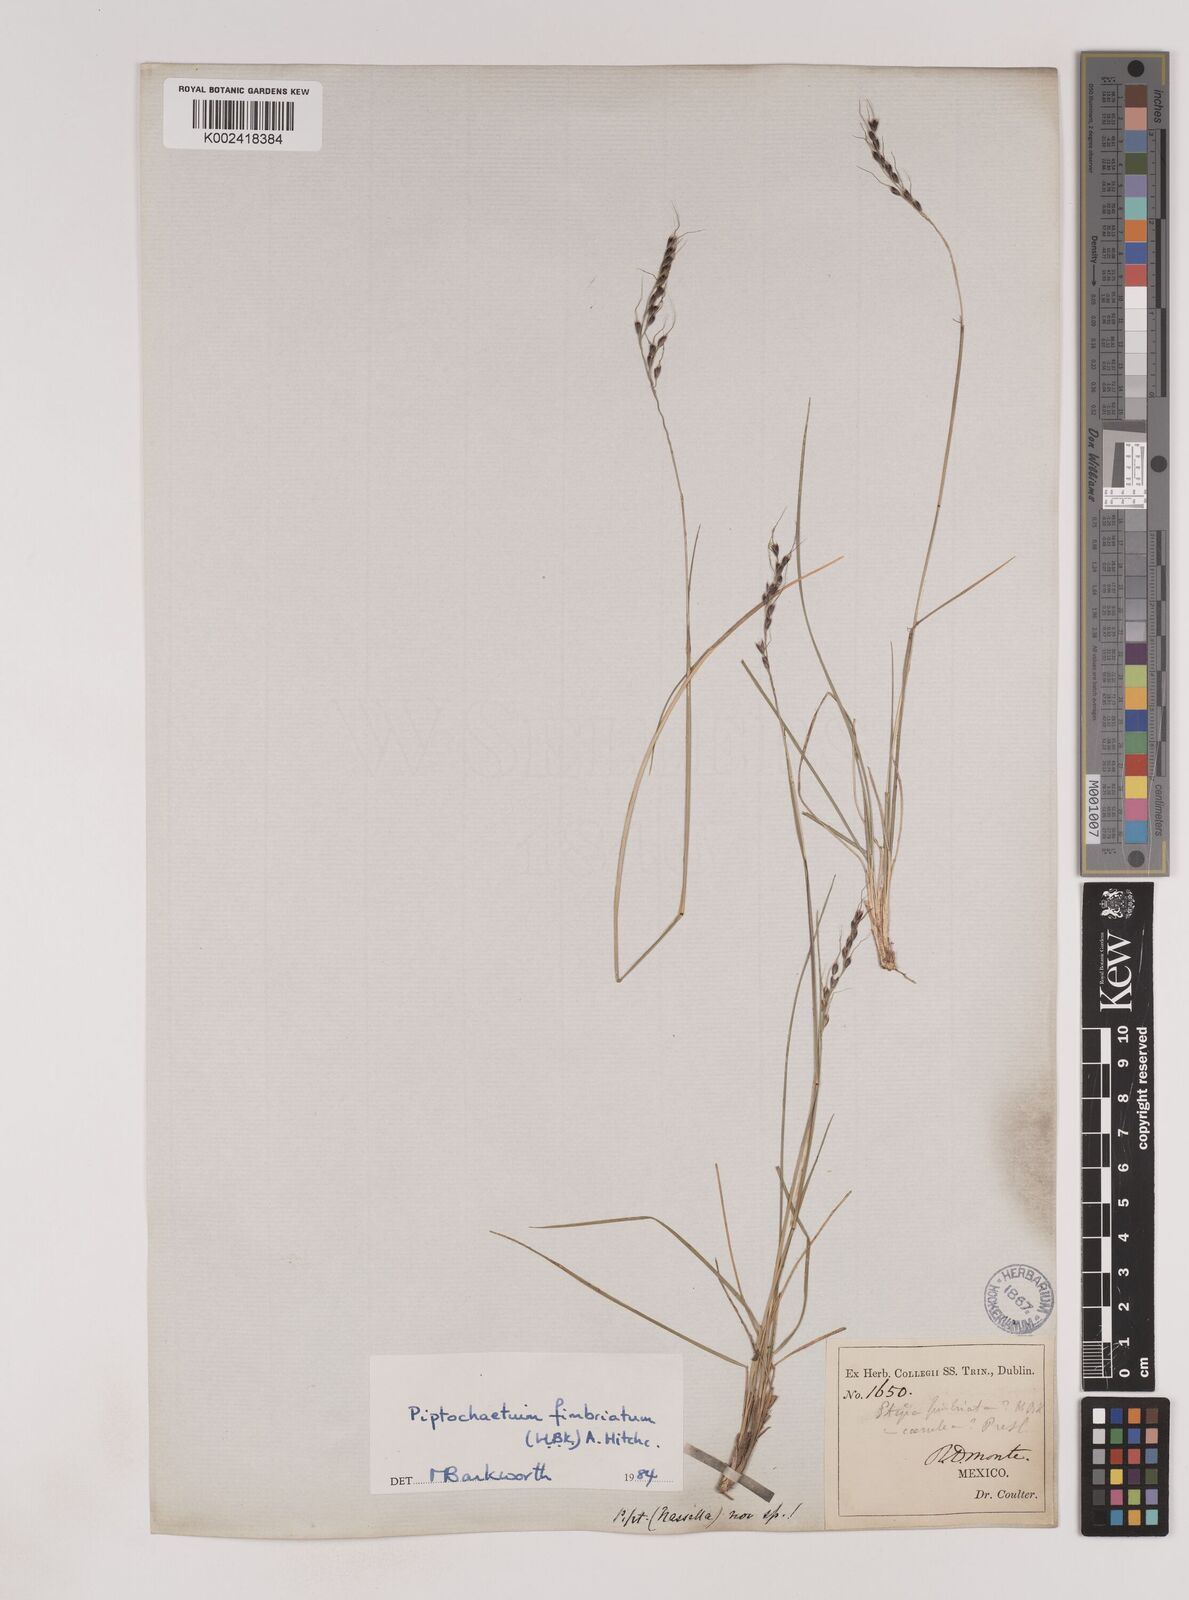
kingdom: Plantae
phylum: Tracheophyta
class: Liliopsida
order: Poales
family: Poaceae
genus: Piptochaetium
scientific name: Piptochaetium fimbriatum
